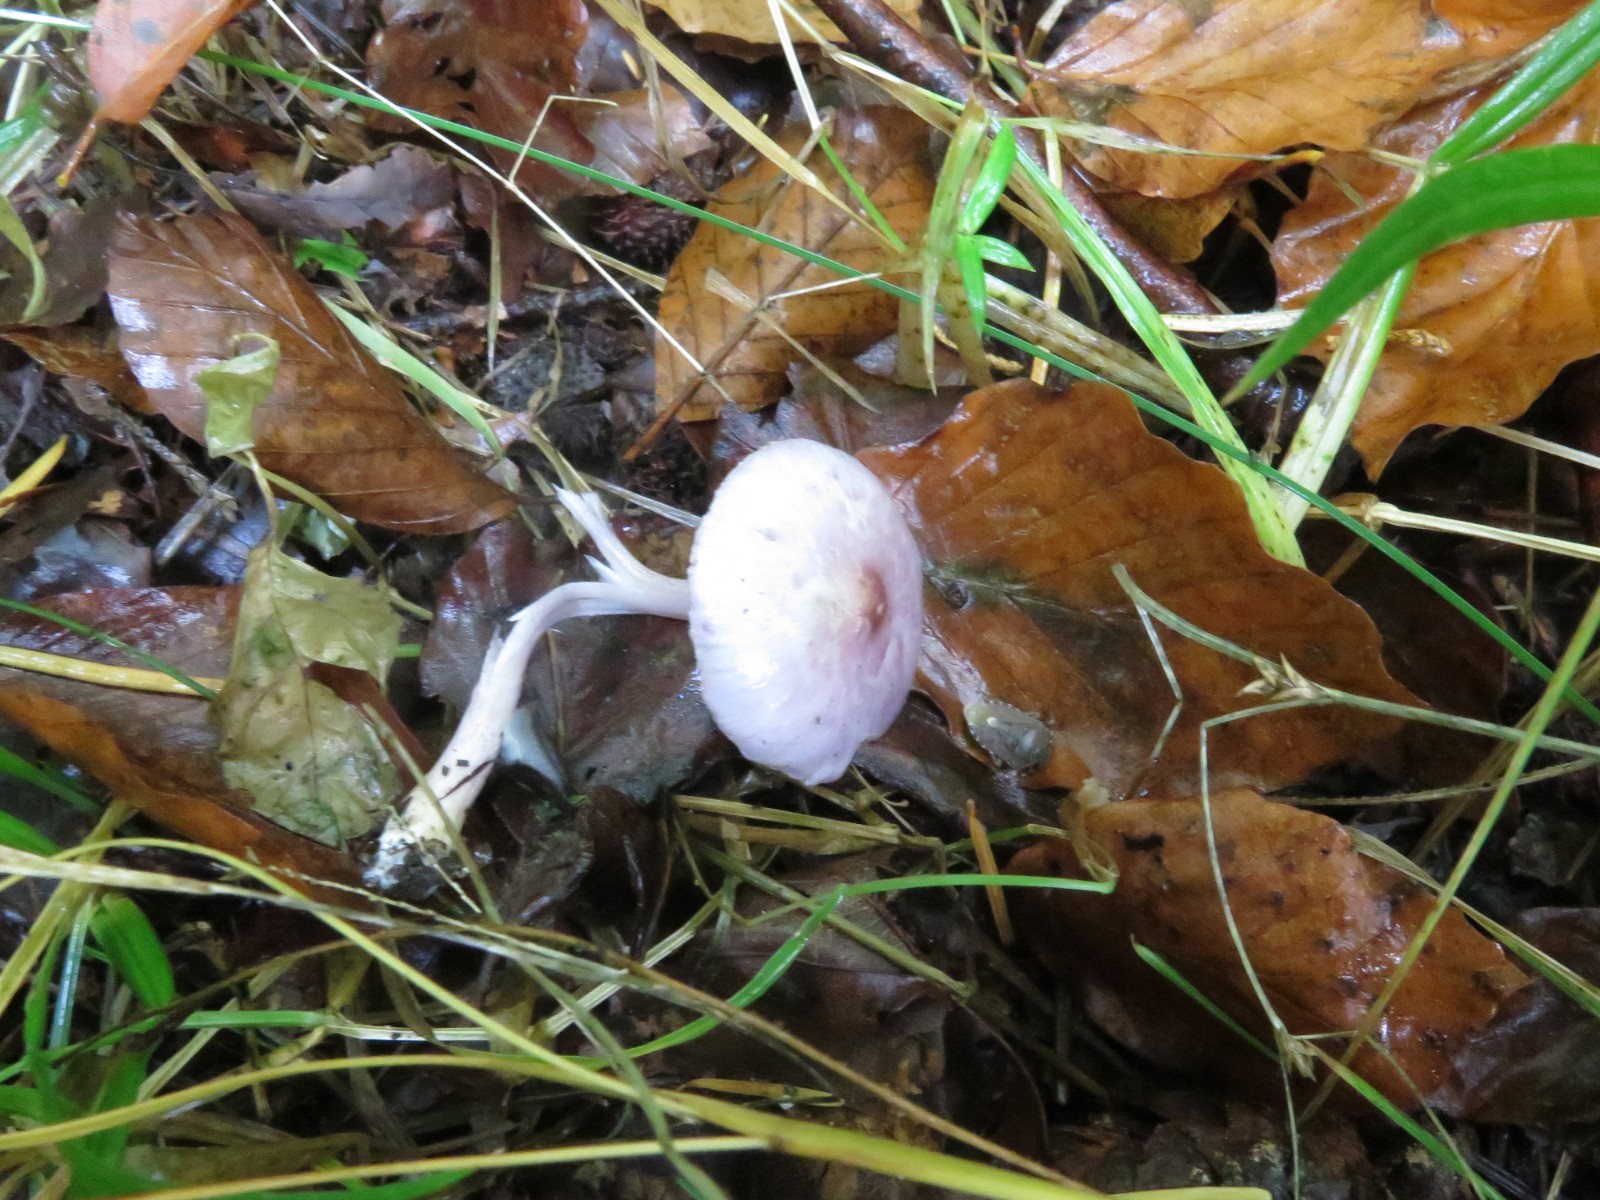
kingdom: Fungi
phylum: Basidiomycota
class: Agaricomycetes
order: Agaricales
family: Inocybaceae
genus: Inocybe
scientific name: Inocybe geophylla
